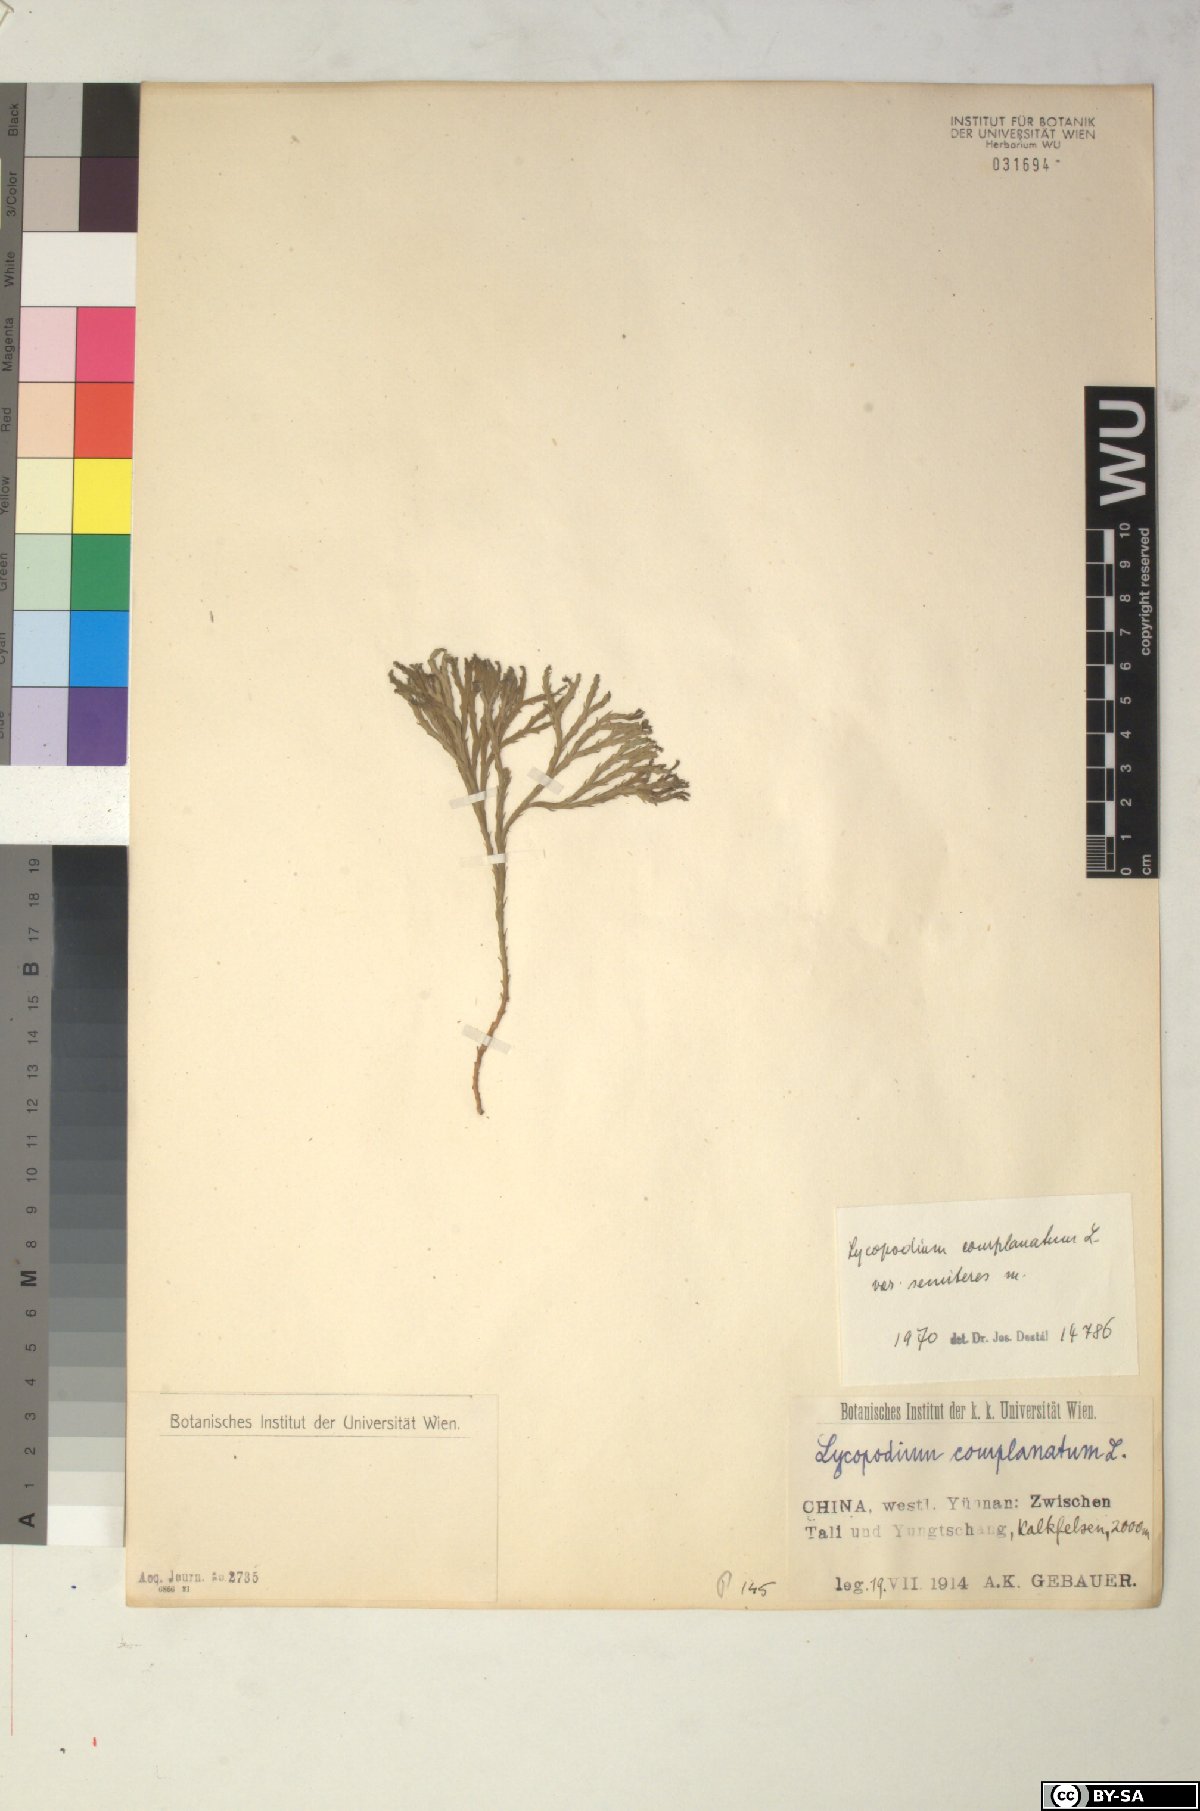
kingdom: Plantae
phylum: Tracheophyta
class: Lycopodiopsida
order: Lycopodiales
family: Lycopodiaceae
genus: Diphasiastrum
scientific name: Diphasiastrum complanatum
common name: Northern running-pine
